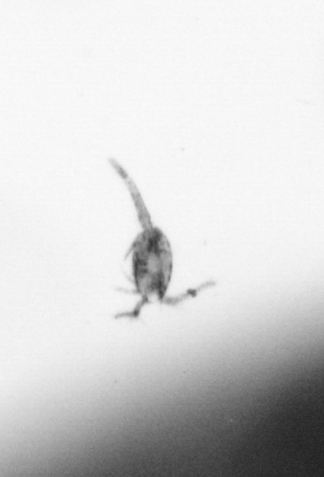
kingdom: Animalia
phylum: Arthropoda
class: Copepoda
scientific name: Copepoda
